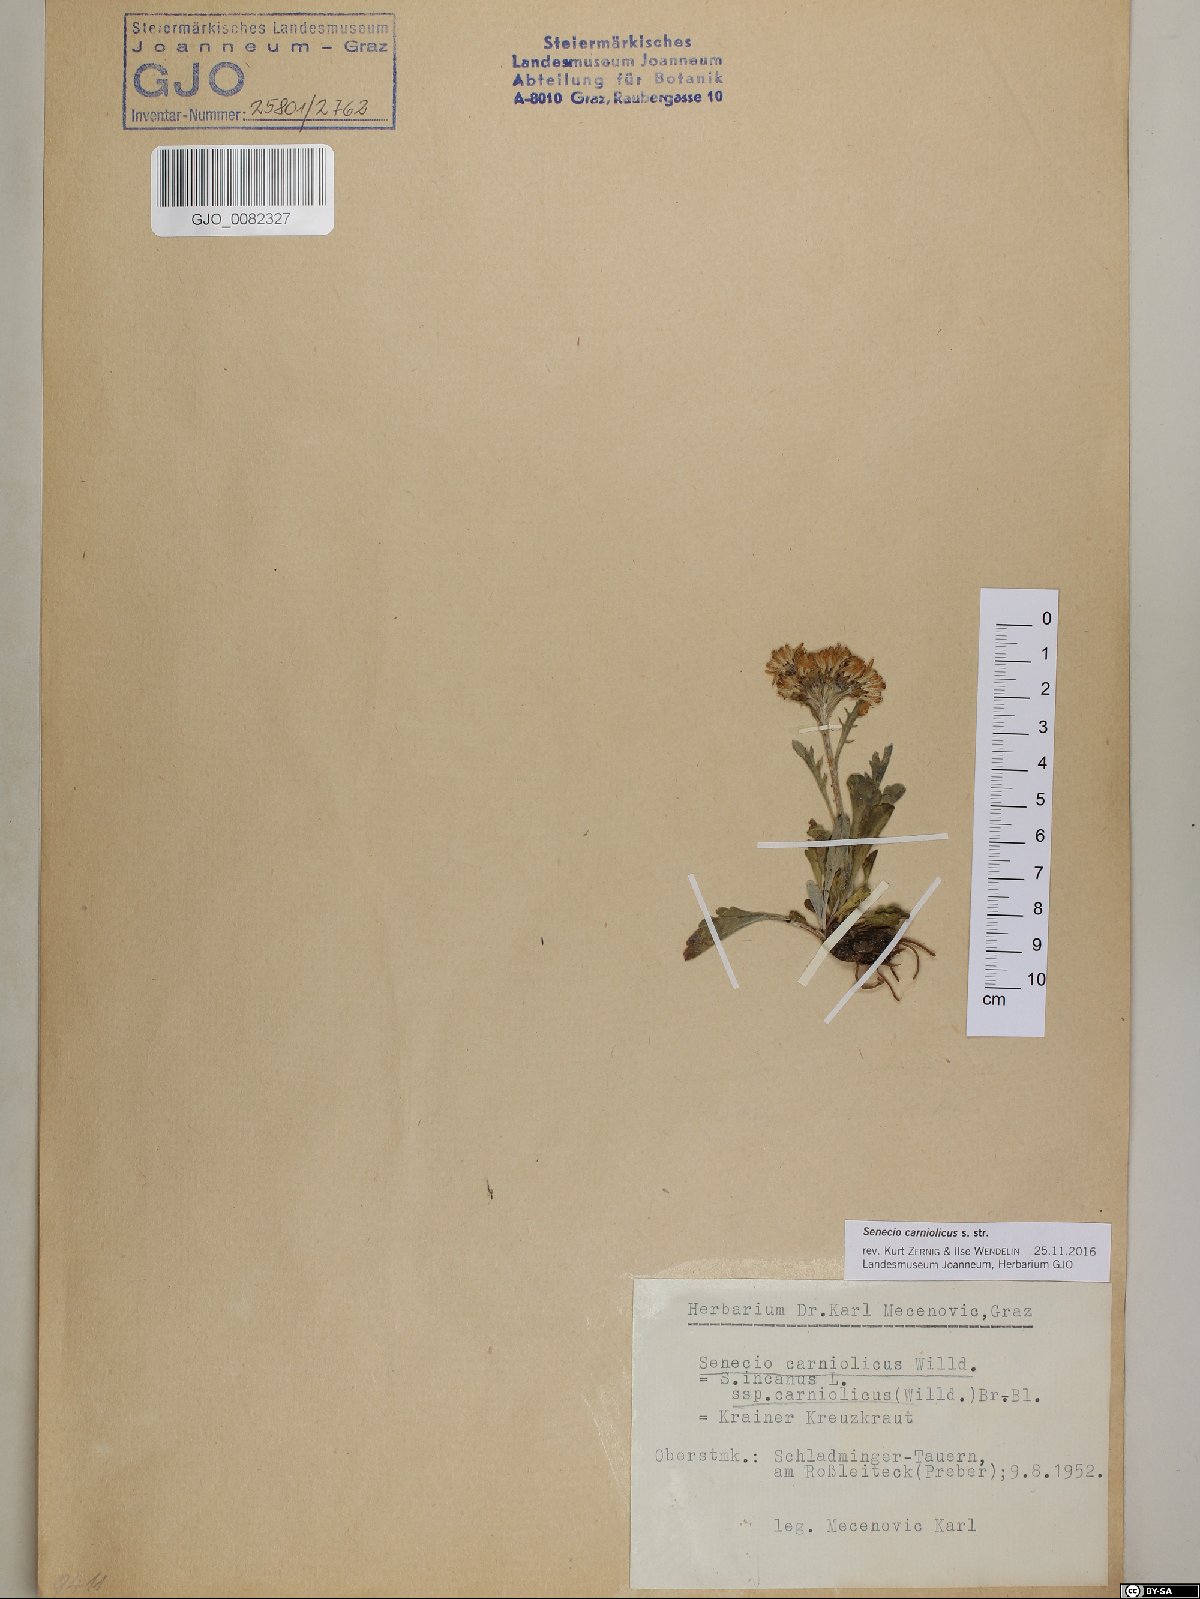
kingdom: Plantae
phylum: Tracheophyta
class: Magnoliopsida
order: Asterales
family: Asteraceae
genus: Jacobaea
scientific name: Jacobaea carniolica
